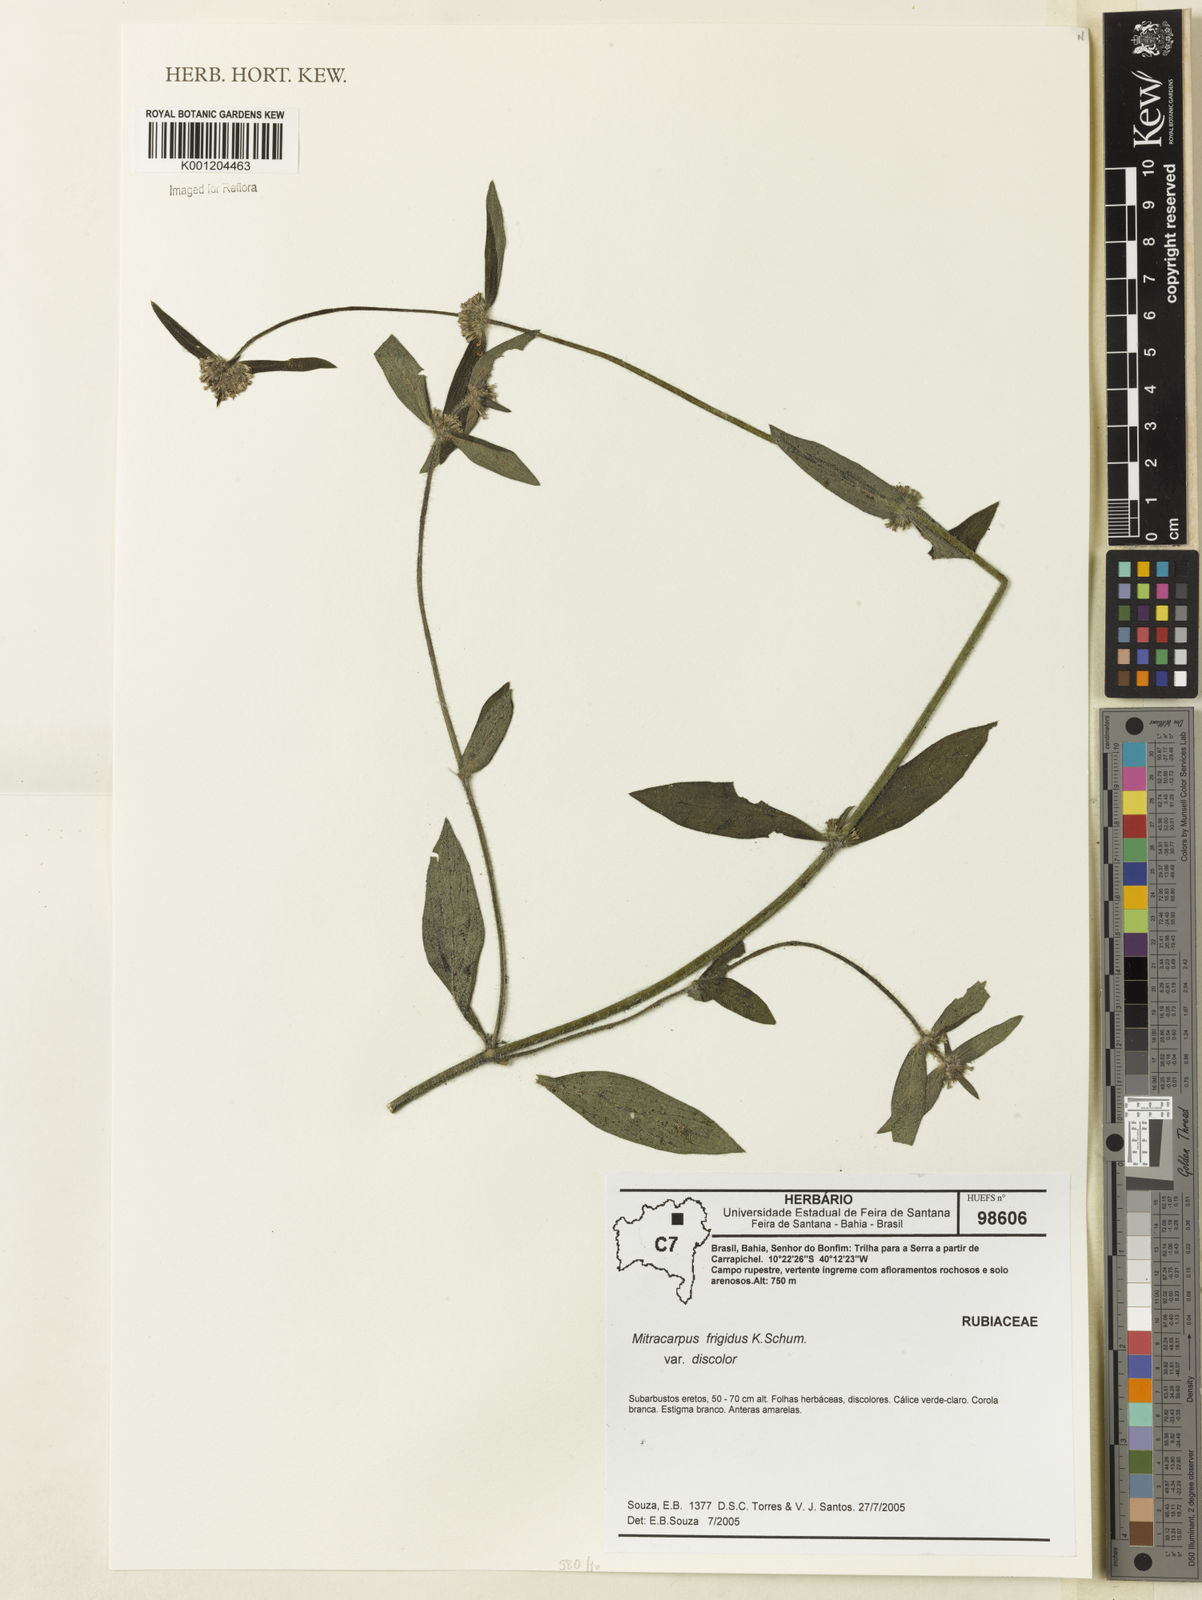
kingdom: Plantae
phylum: Tracheophyta
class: Magnoliopsida
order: Gentianales
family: Rubiaceae
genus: Mitracarpus
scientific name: Mitracarpus frigidus
